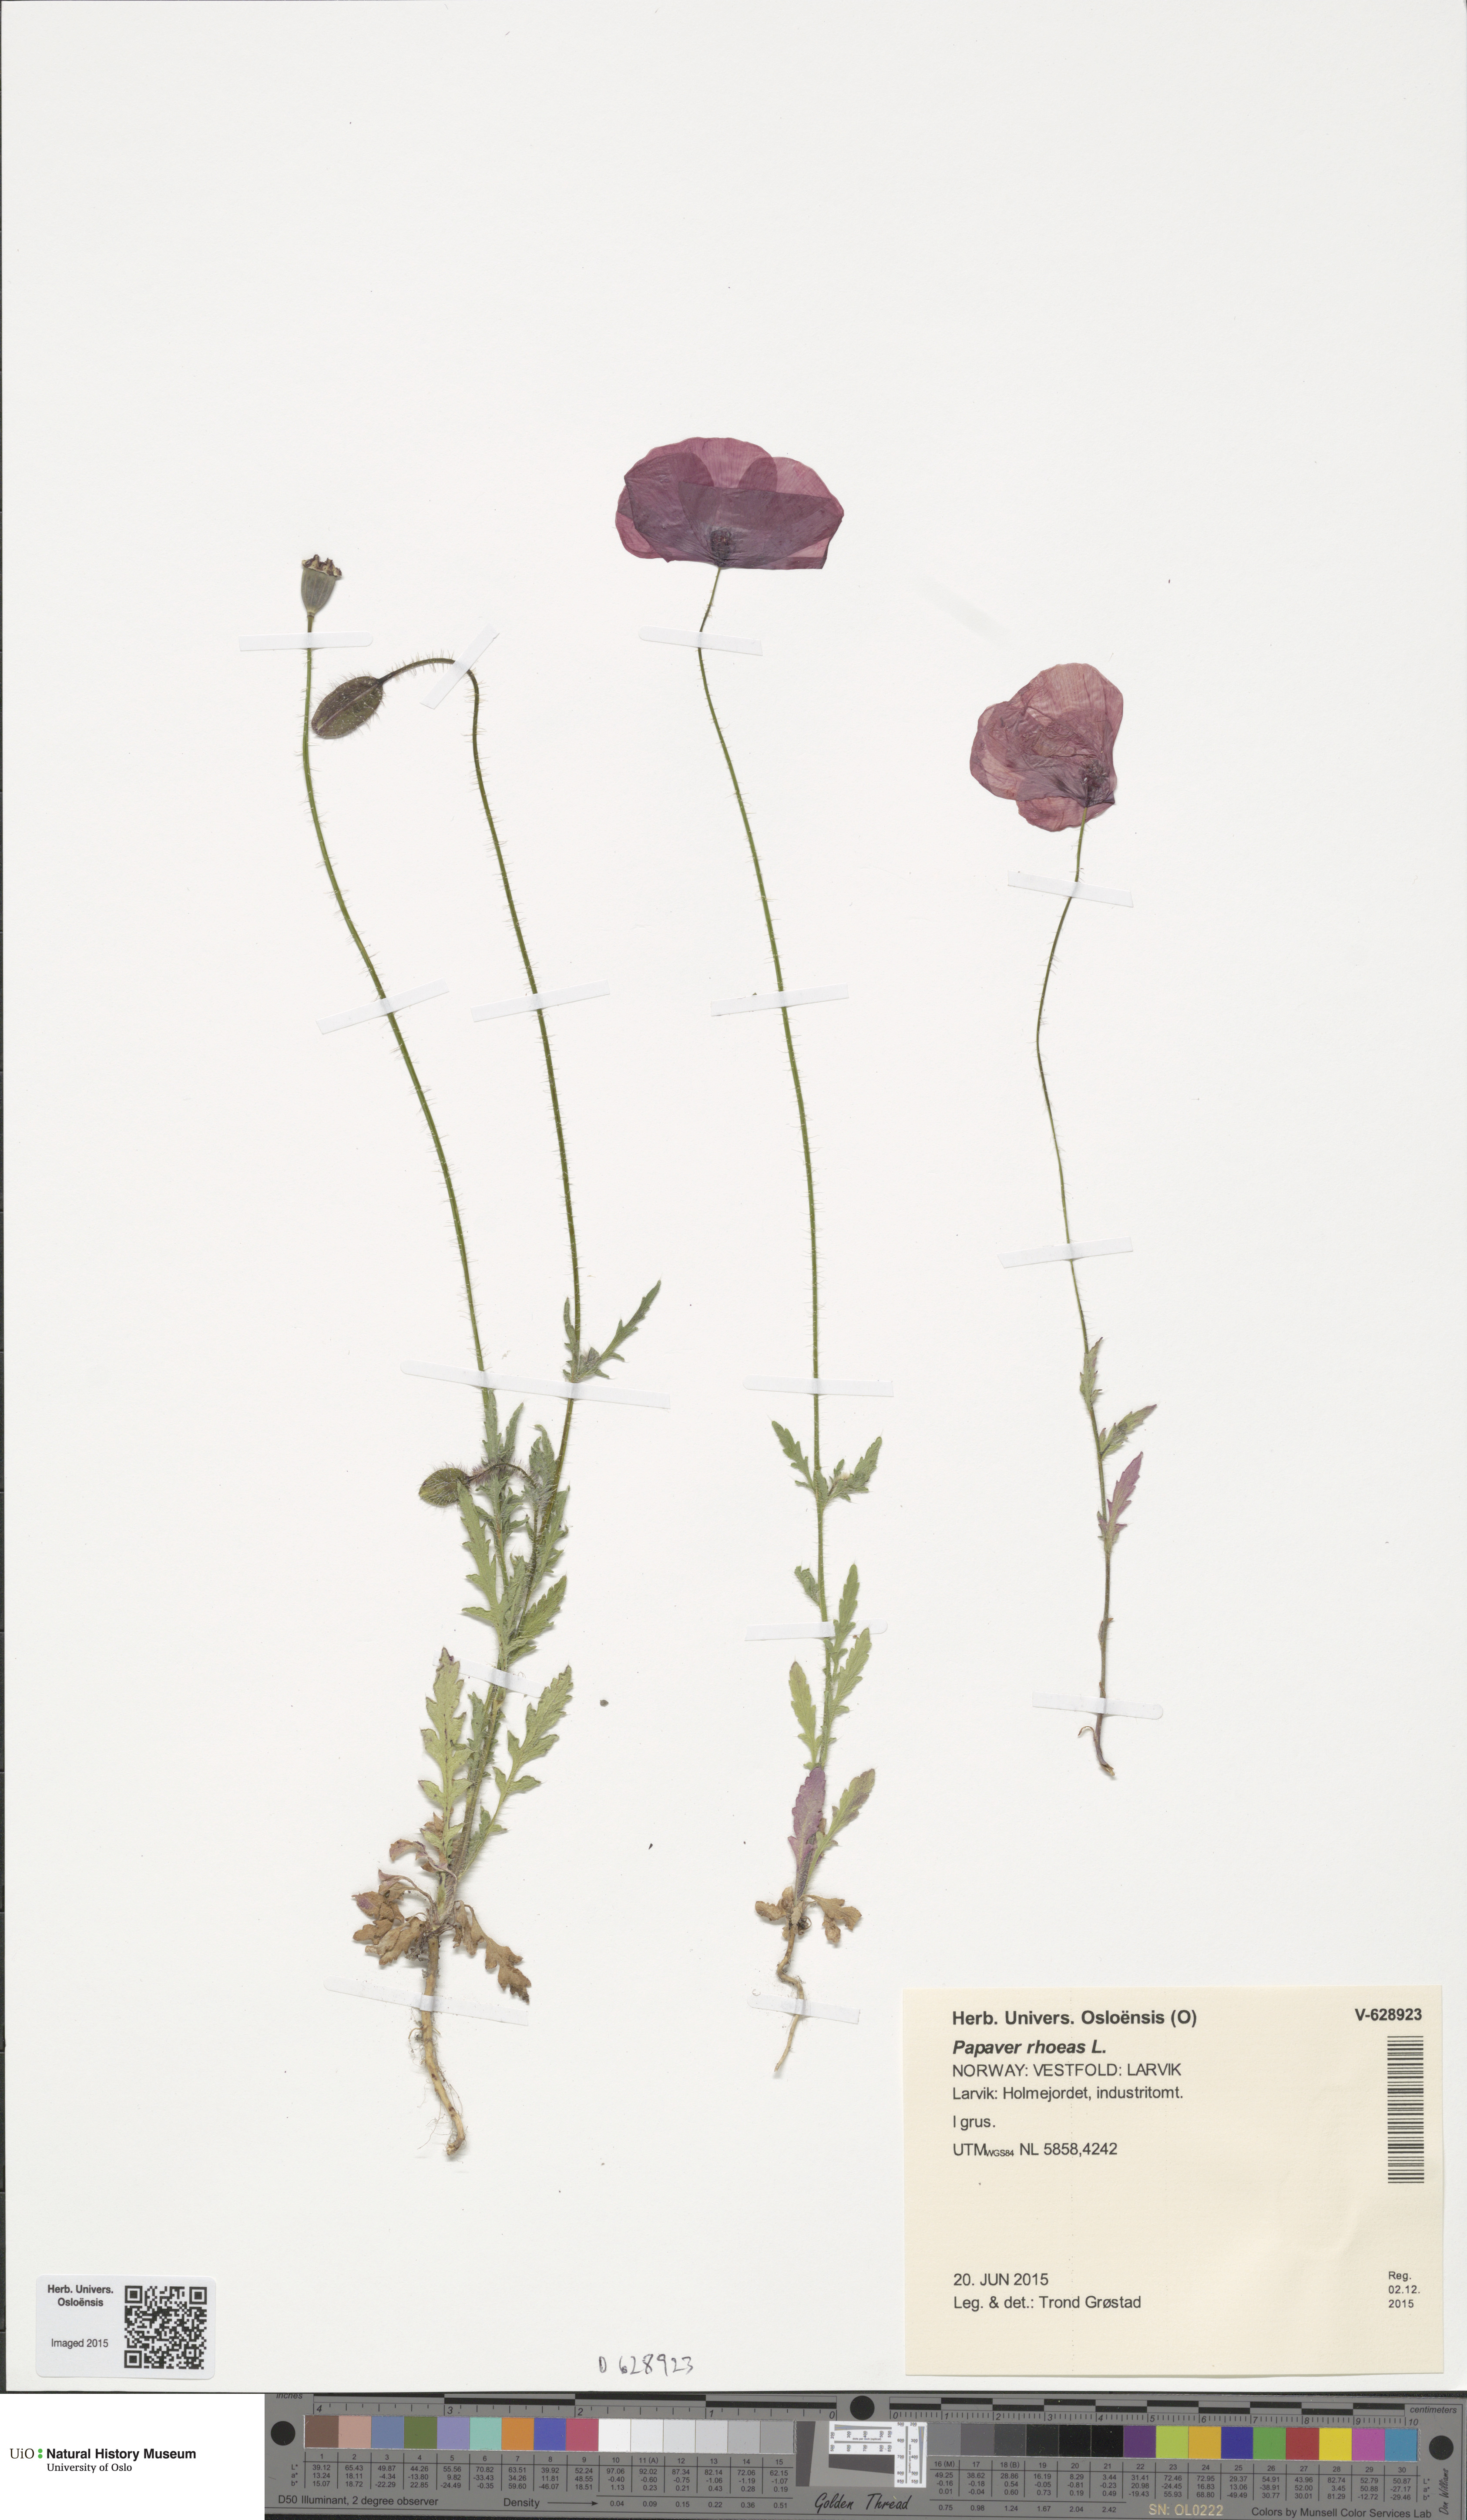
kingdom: Plantae
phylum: Tracheophyta
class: Magnoliopsida
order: Ranunculales
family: Papaveraceae
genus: Papaver
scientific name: Papaver rhoeas
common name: Corn poppy
